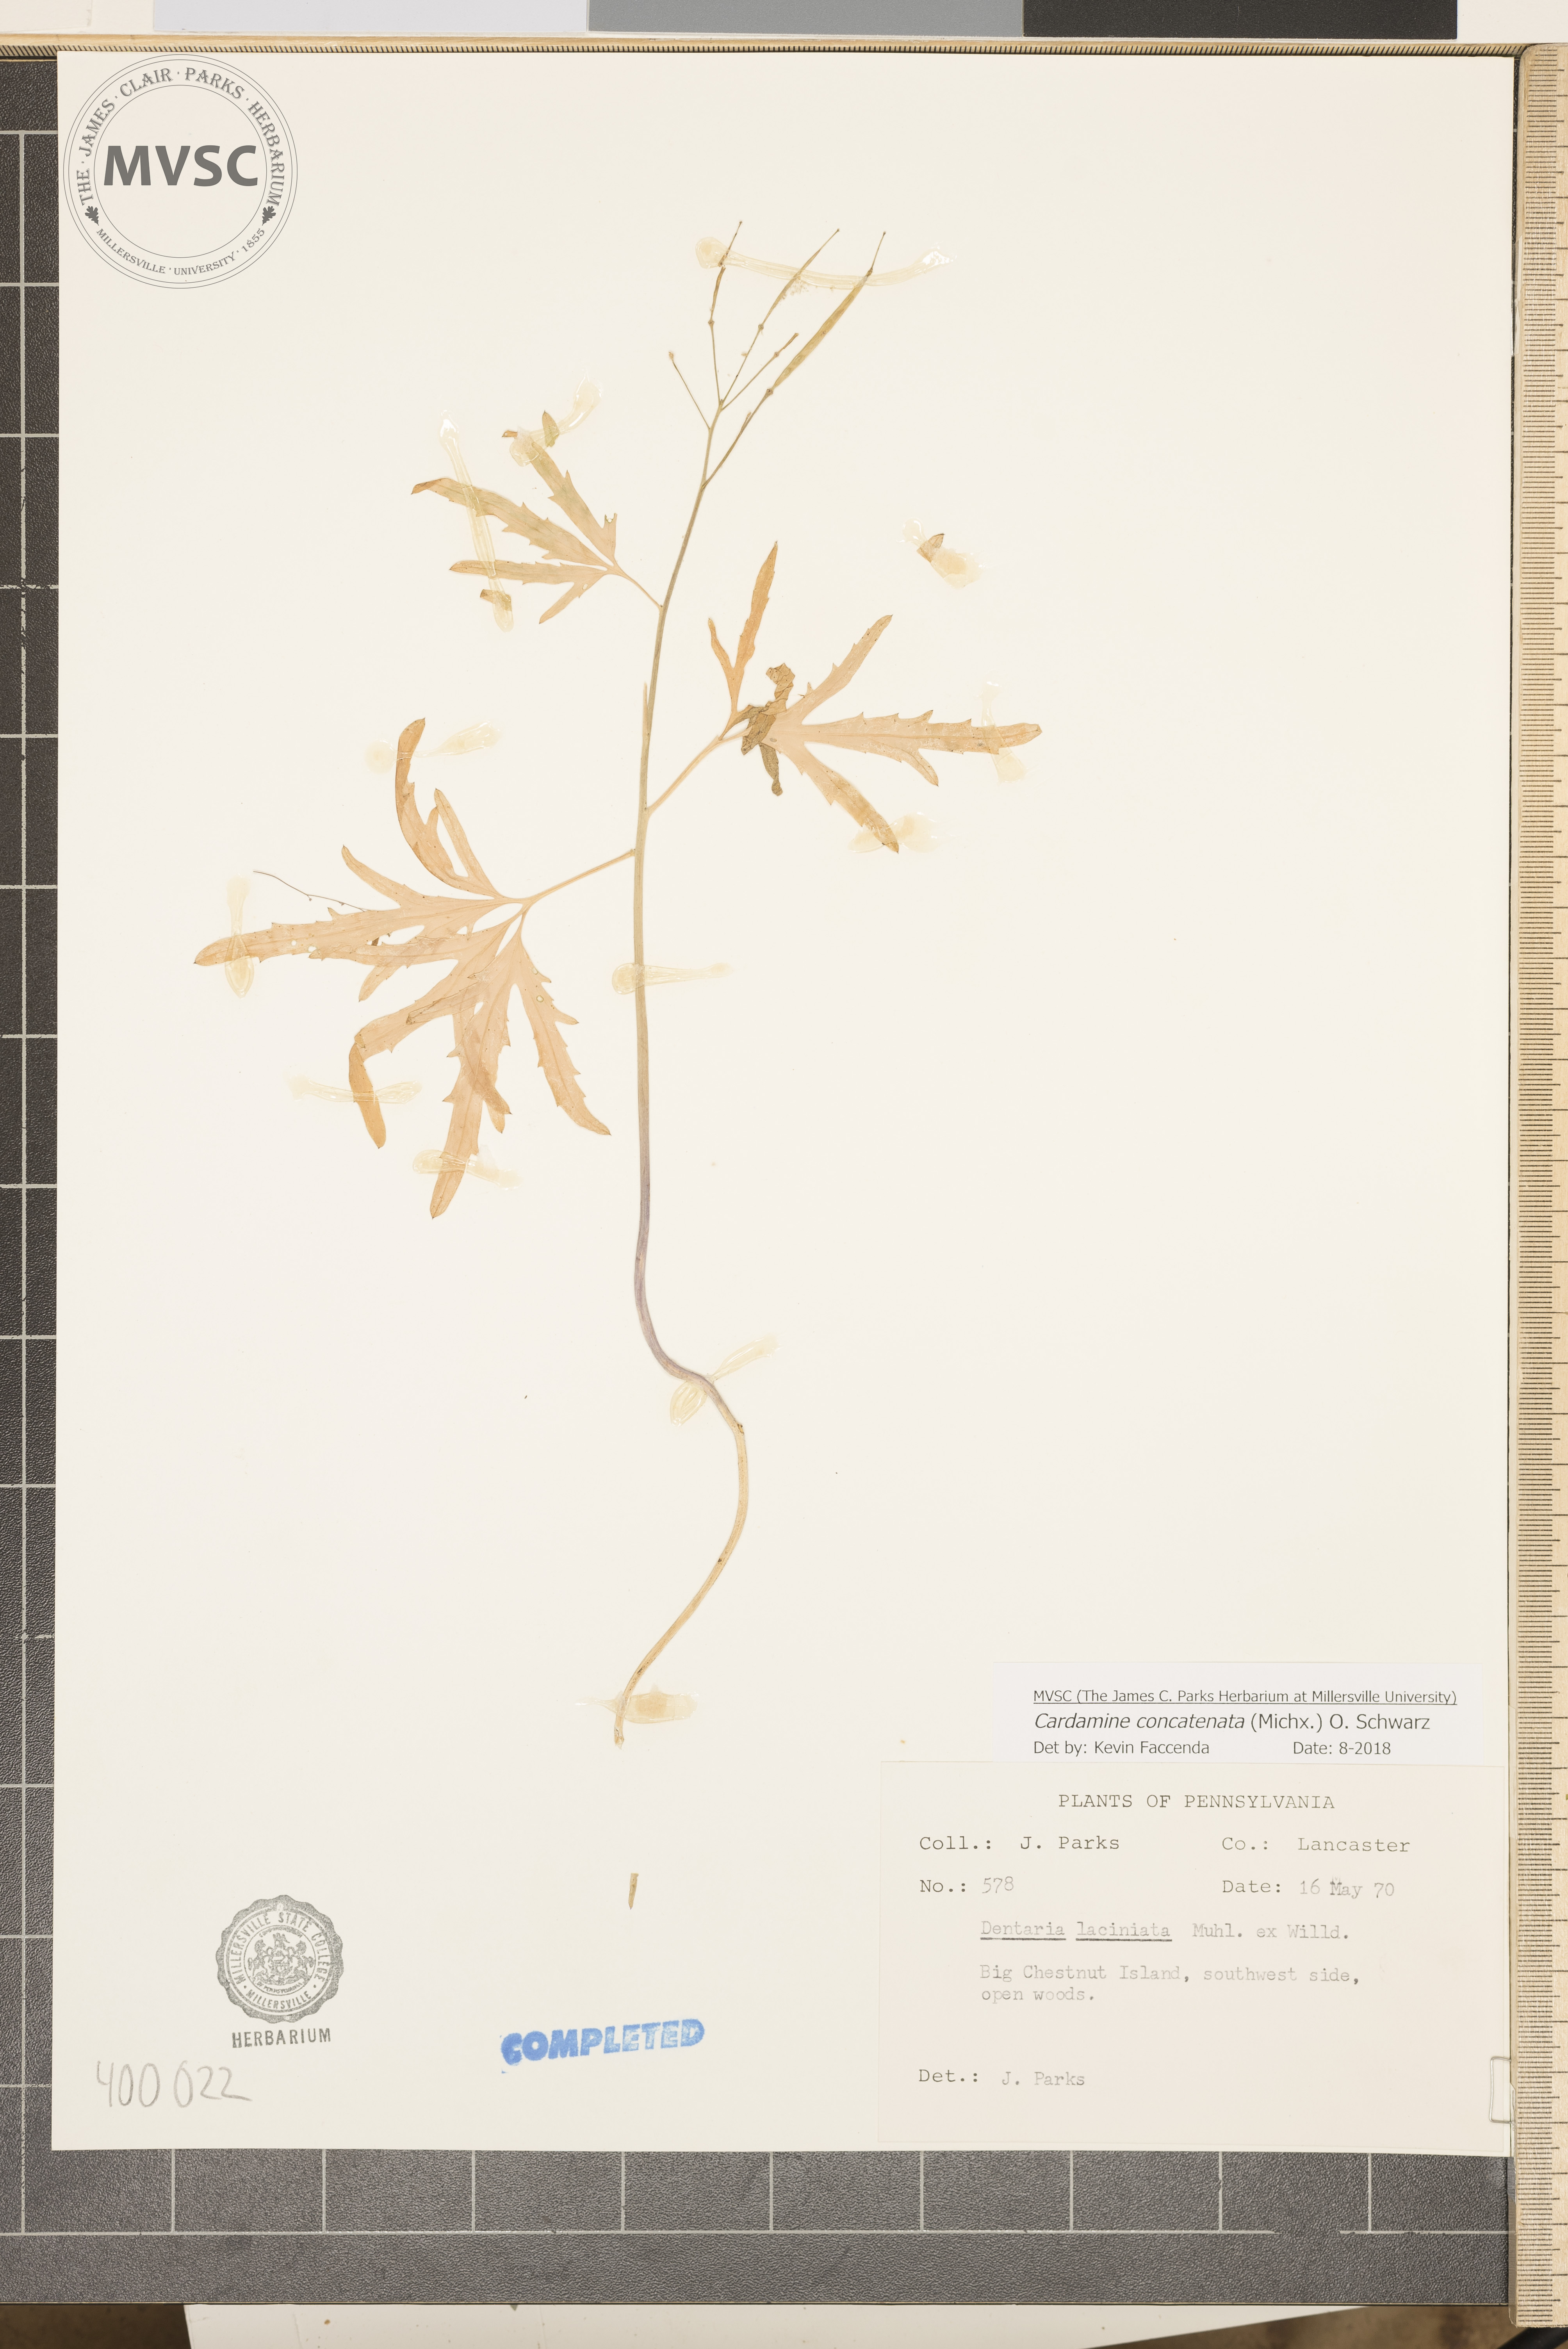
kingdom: Plantae
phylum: Tracheophyta
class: Magnoliopsida
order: Brassicales
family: Brassicaceae
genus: Cardamine
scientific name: Cardamine concatenata
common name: toothwort
